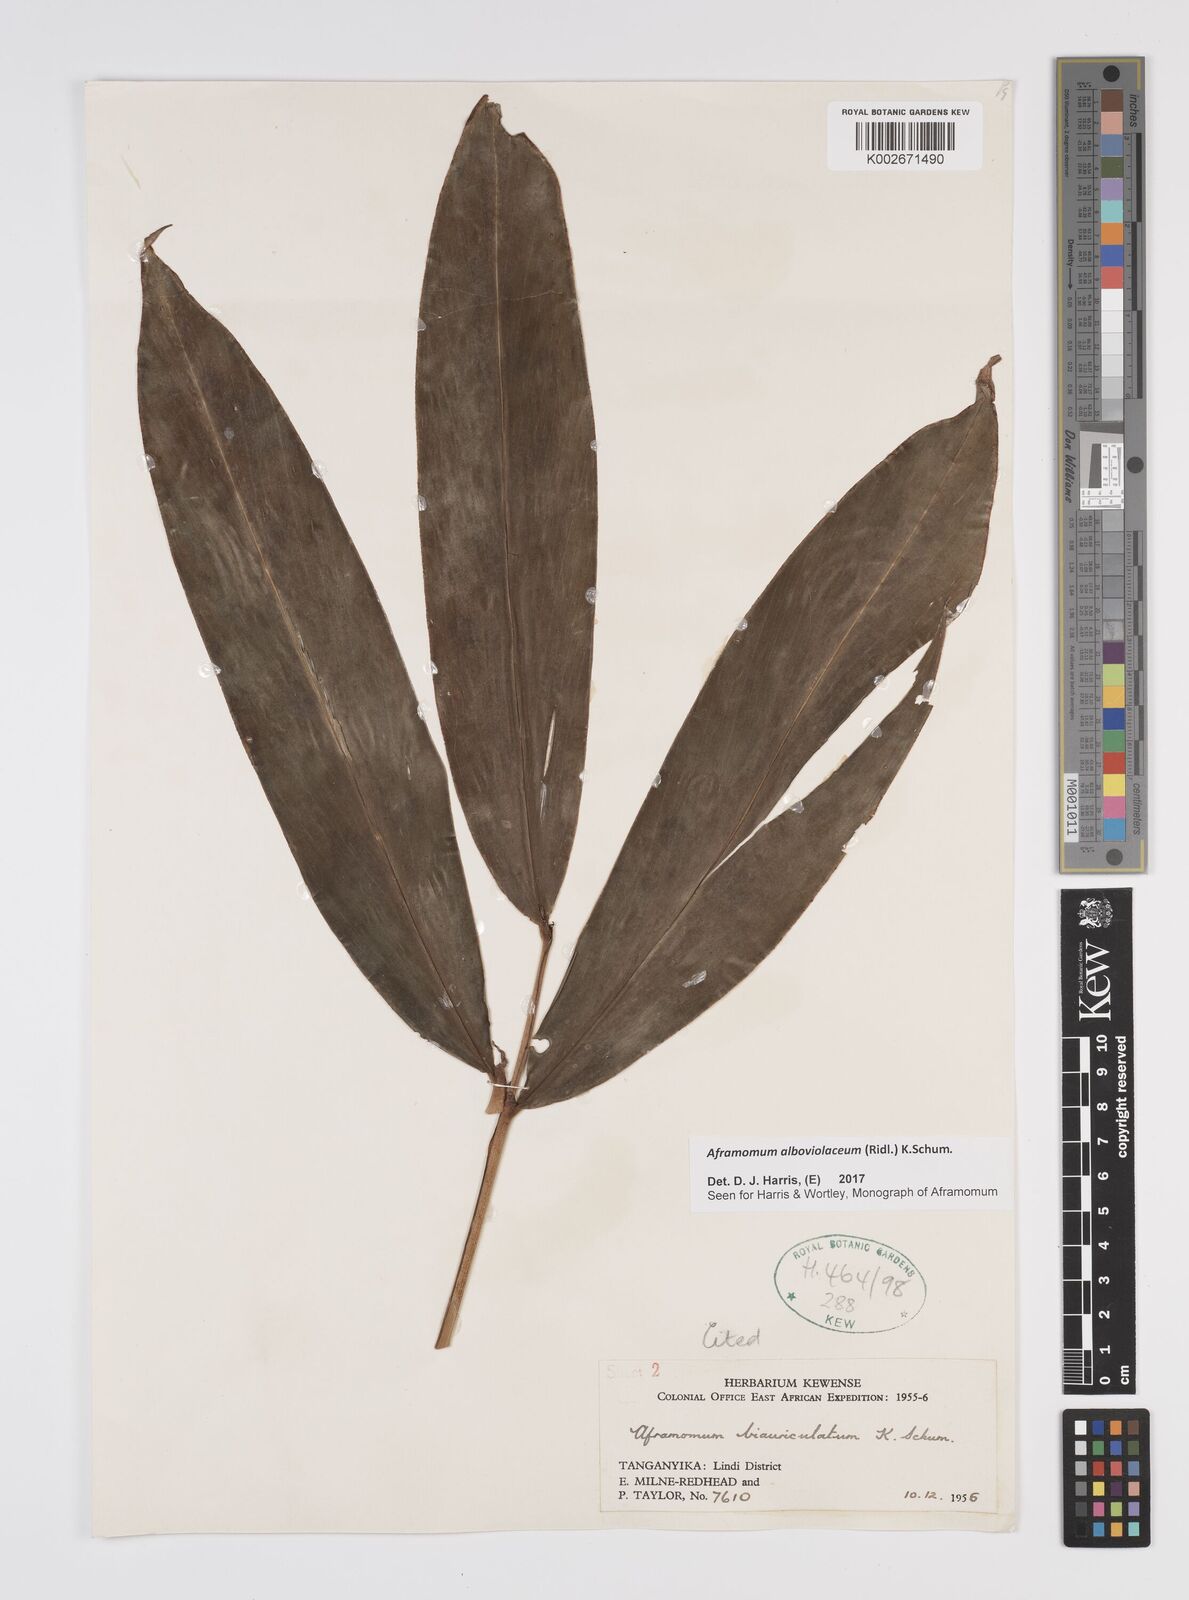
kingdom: Plantae
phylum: Tracheophyta
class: Liliopsida
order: Zingiberales
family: Zingiberaceae
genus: Aframomum
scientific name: Aframomum alboviolaceum
